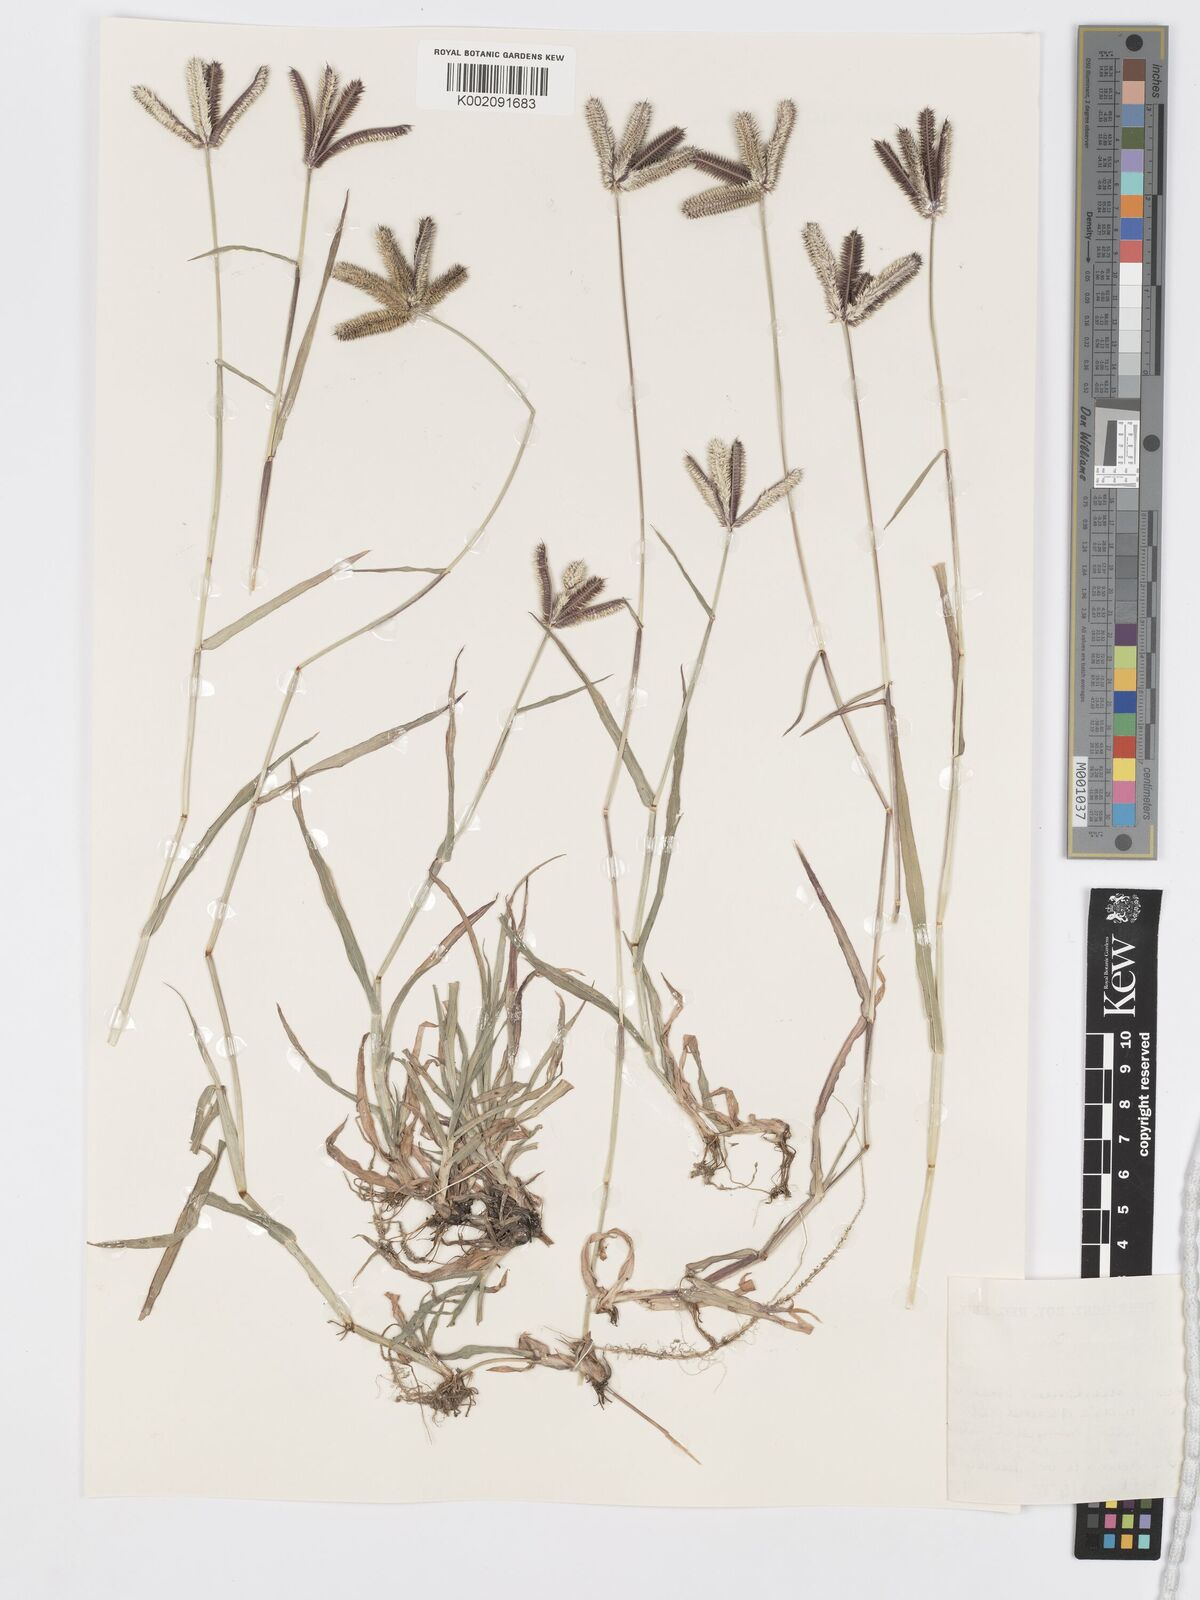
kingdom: Plantae
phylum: Tracheophyta
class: Liliopsida
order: Poales
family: Poaceae
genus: Dactyloctenium
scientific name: Dactyloctenium aegyptium
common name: Egyptian grass
